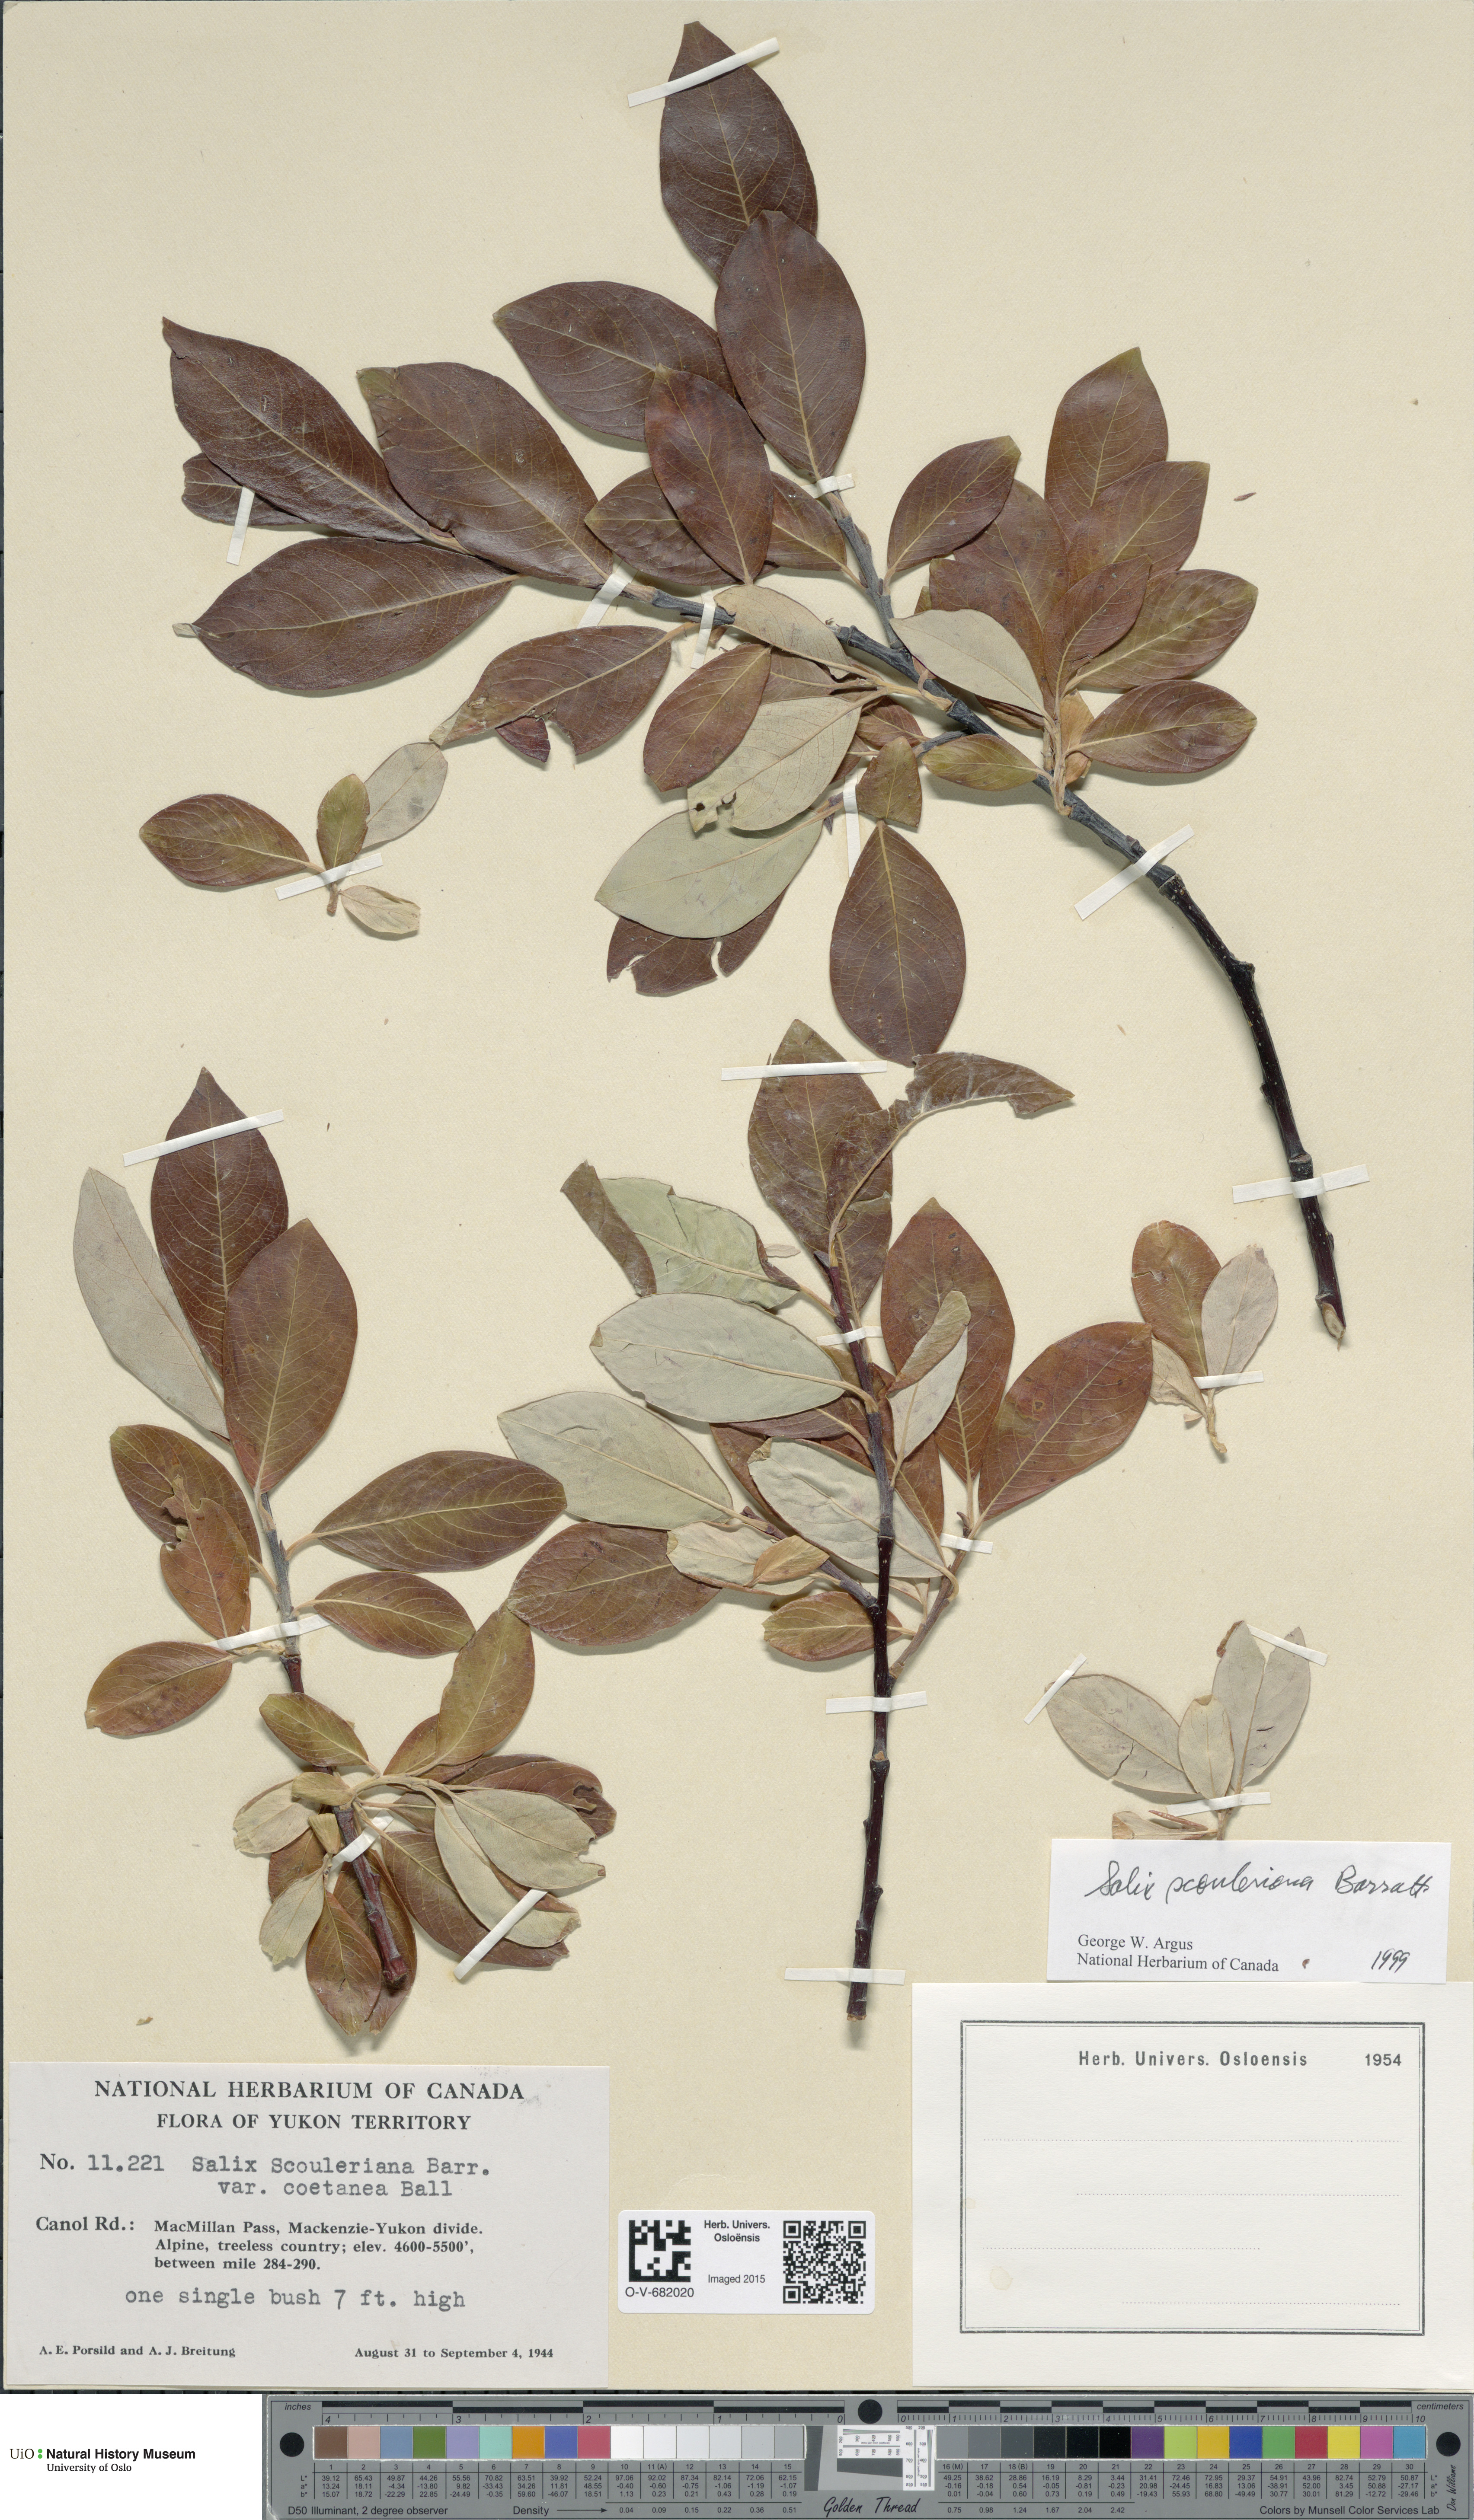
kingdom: Plantae
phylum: Tracheophyta
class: Magnoliopsida
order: Malpighiales
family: Salicaceae
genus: Salix
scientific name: Salix scouleriana
